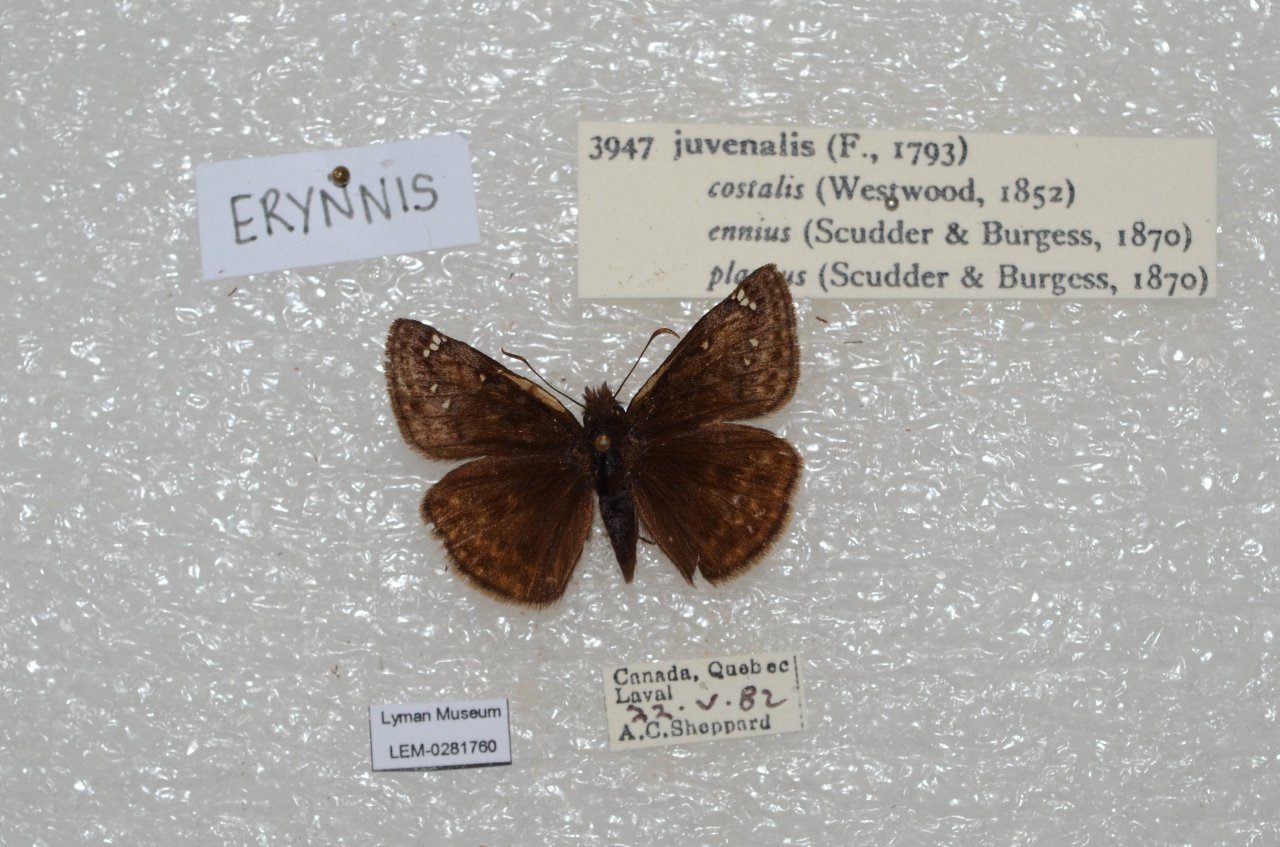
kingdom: Animalia
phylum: Arthropoda
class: Insecta
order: Lepidoptera
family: Hesperiidae
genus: Gesta
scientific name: Gesta
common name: Juvenal's Duskywing
